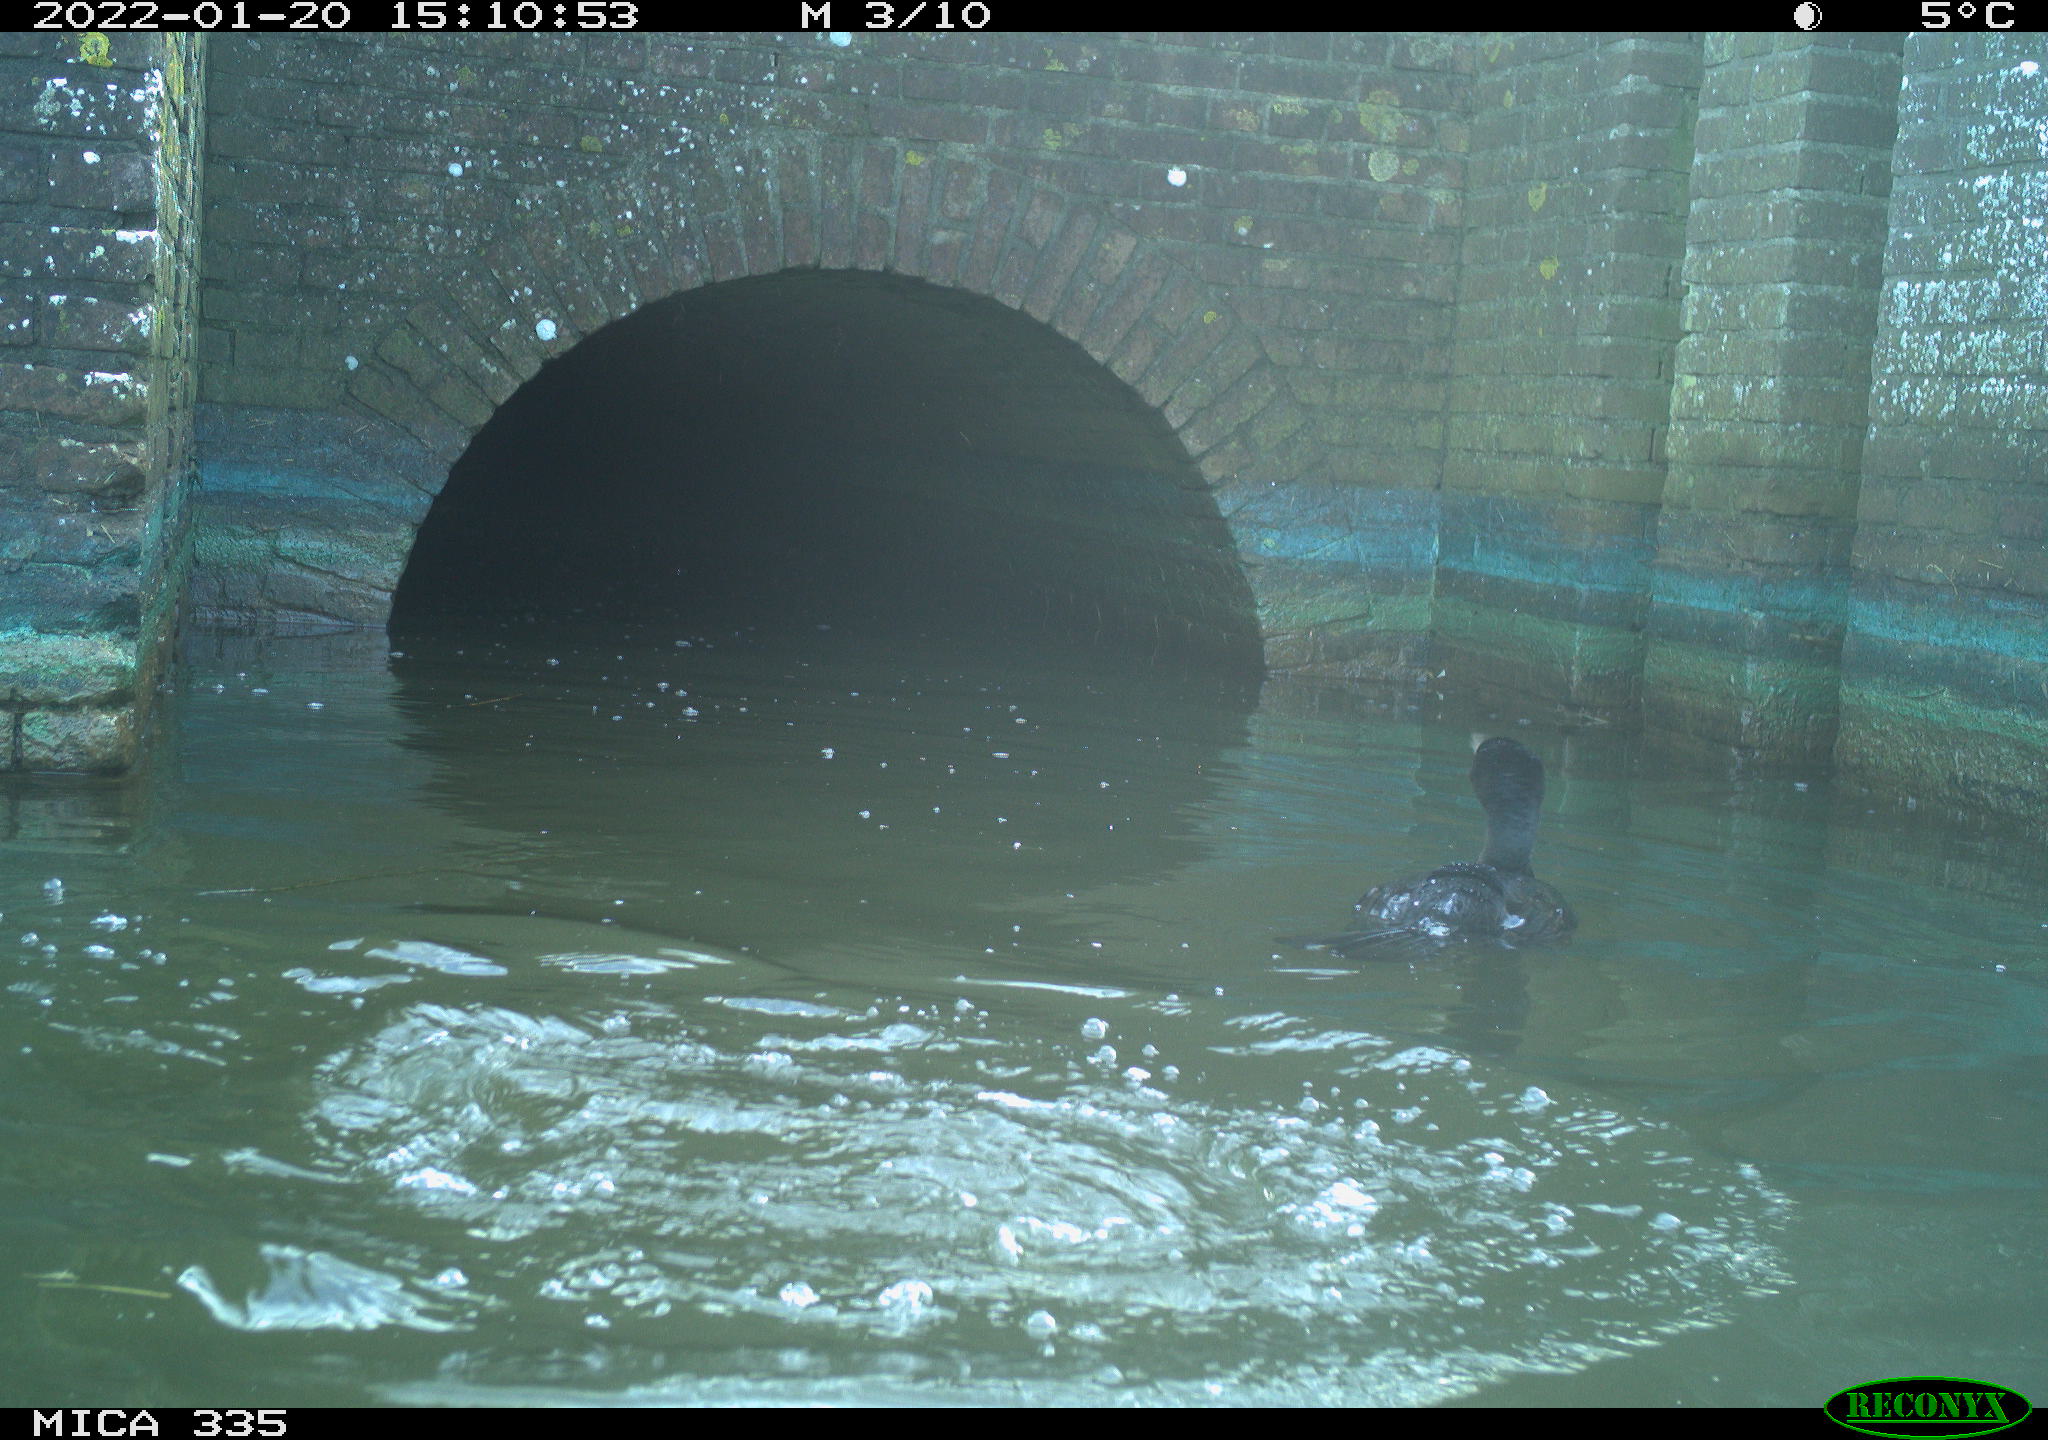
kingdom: Animalia
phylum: Chordata
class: Aves
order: Suliformes
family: Phalacrocoracidae
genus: Phalacrocorax
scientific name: Phalacrocorax carbo
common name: Great cormorant
